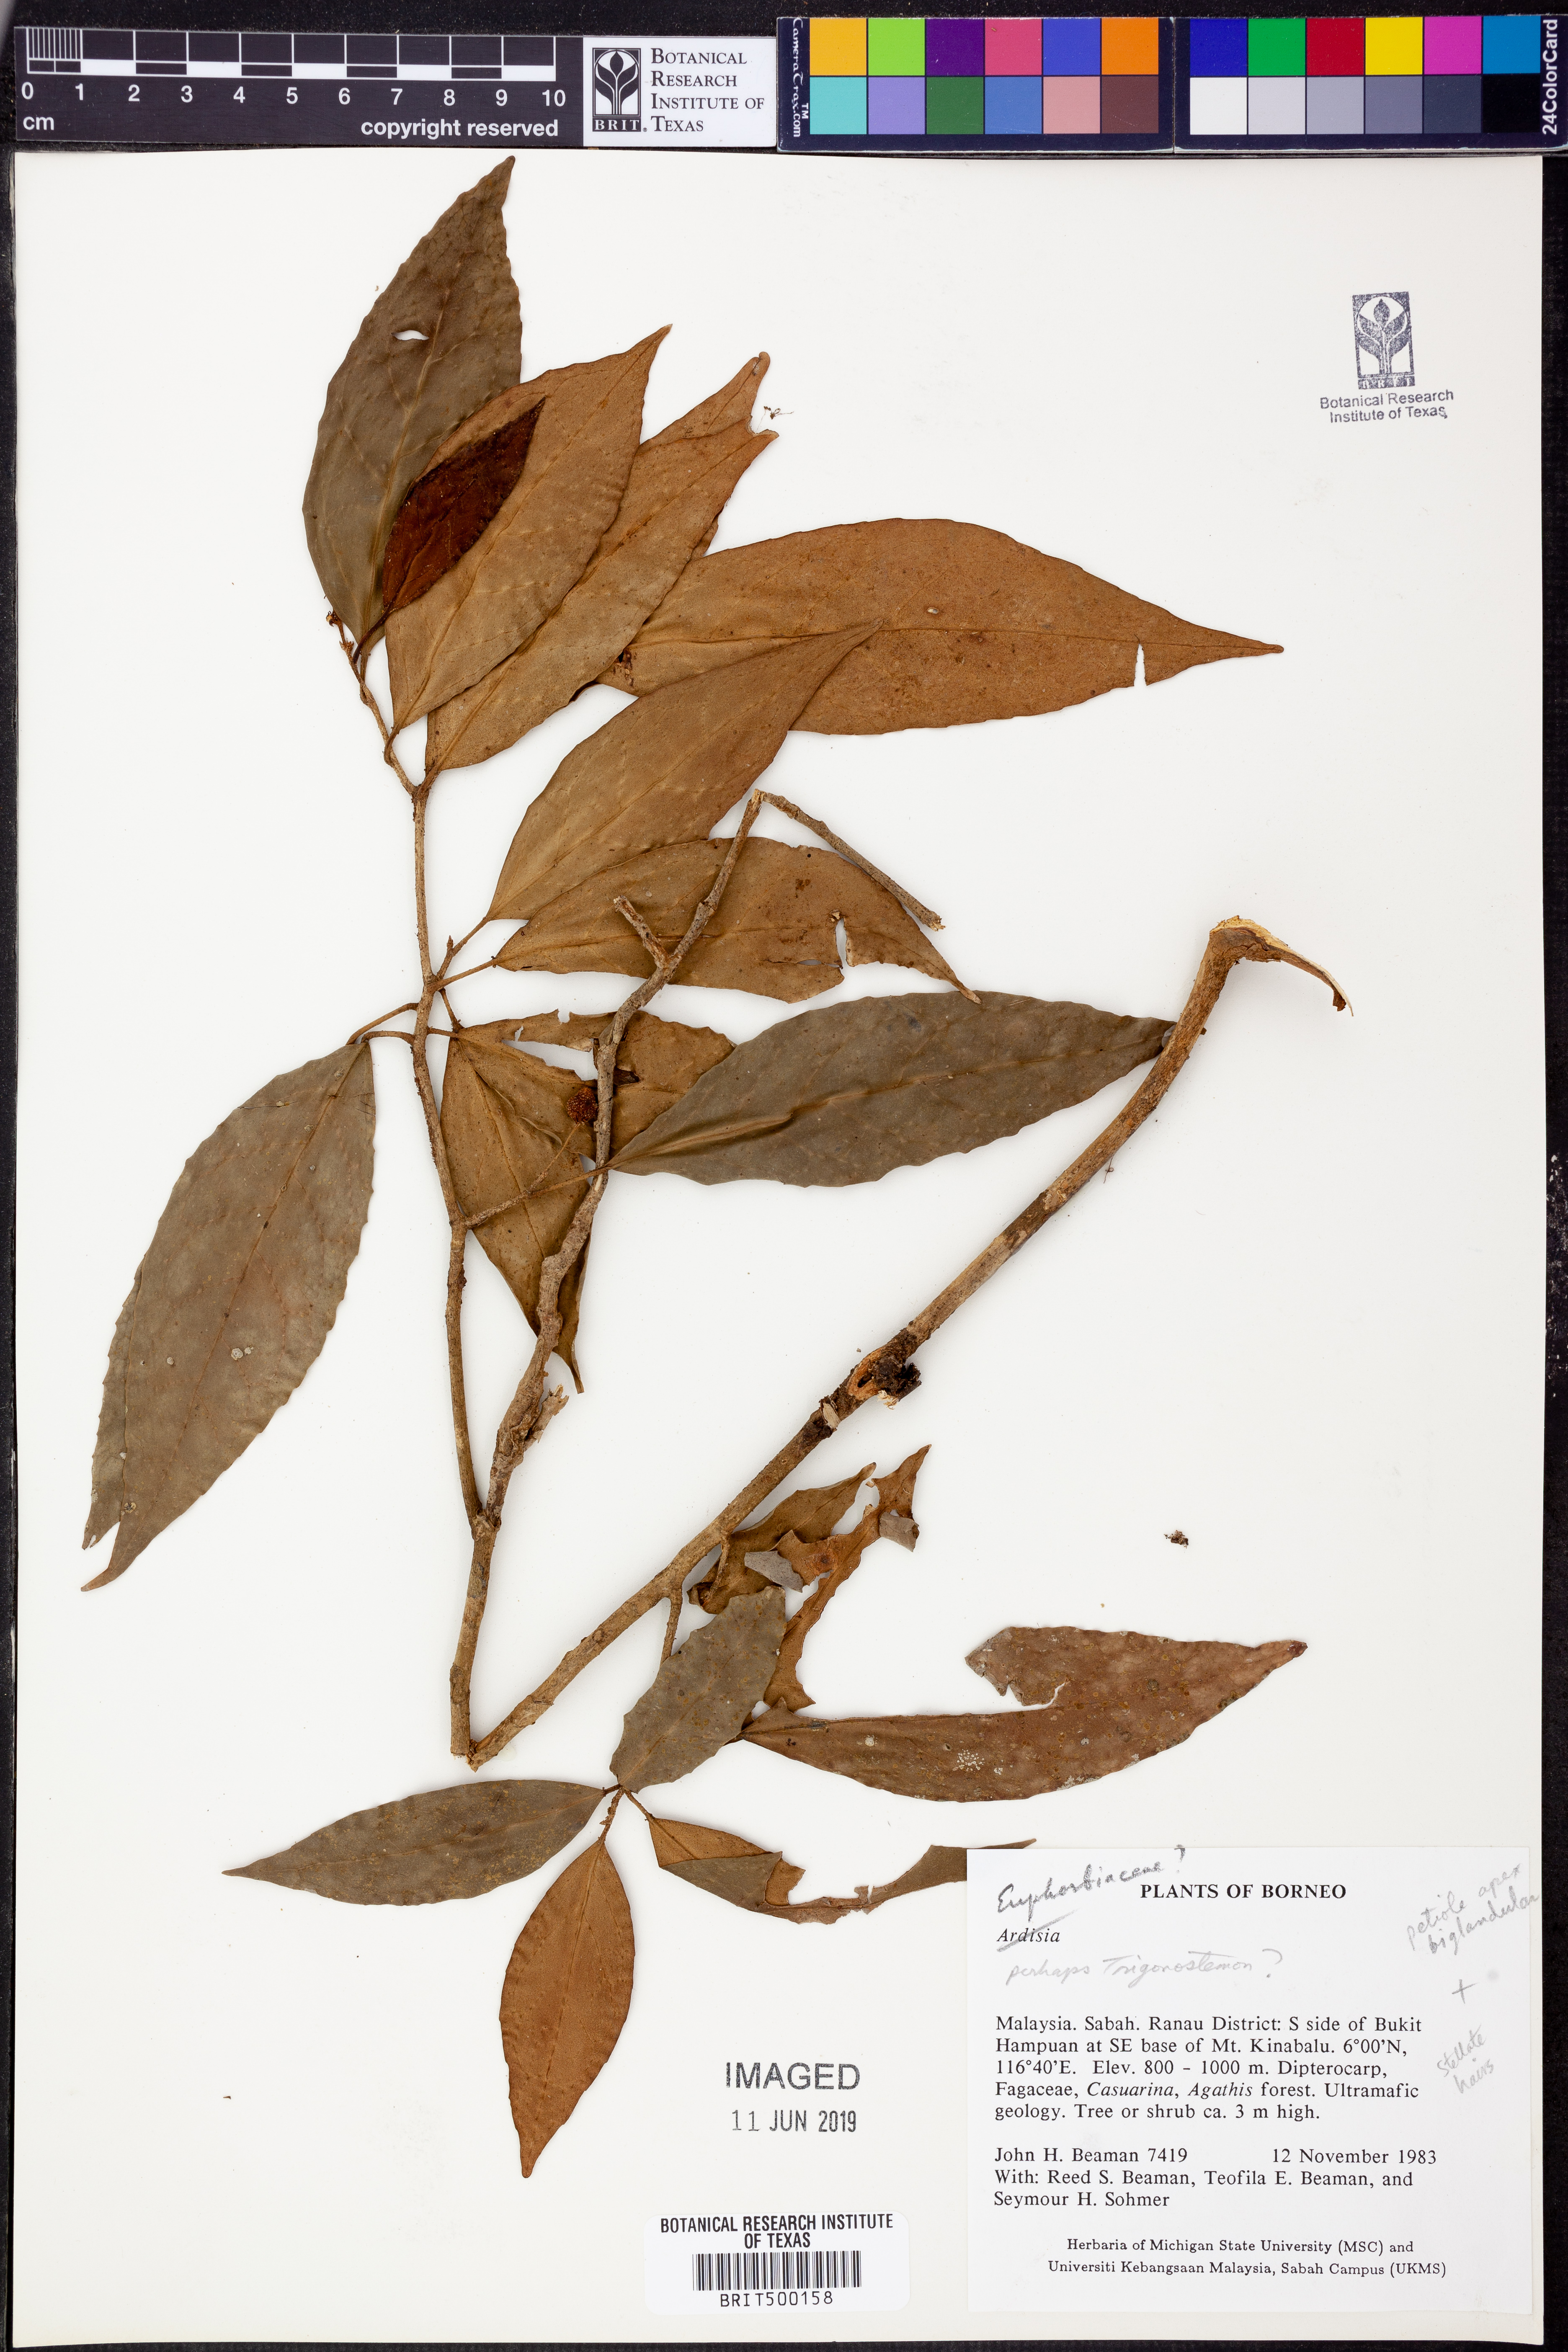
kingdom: Plantae
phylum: Tracheophyta
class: Magnoliopsida
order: Malpighiales
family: Euphorbiaceae
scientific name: Euphorbiaceae
